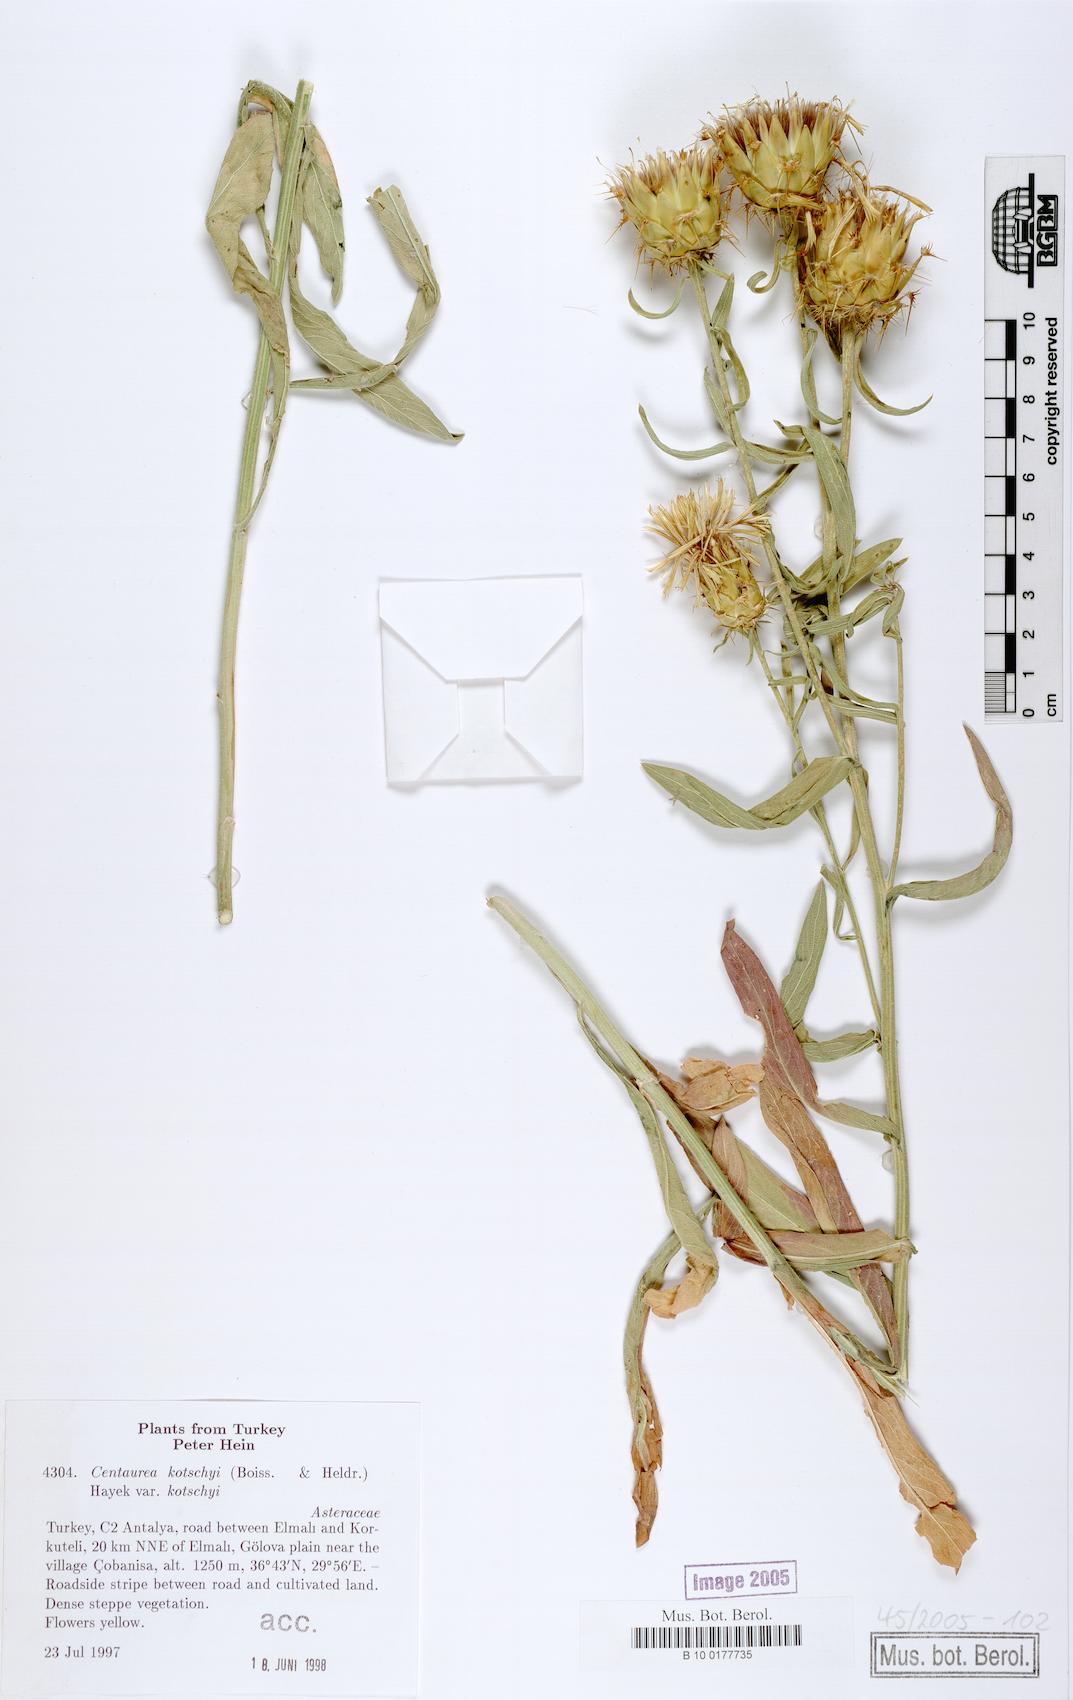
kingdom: Plantae
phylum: Tracheophyta
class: Magnoliopsida
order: Asterales
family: Asteraceae
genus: Centaurea
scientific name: Centaurea kotschyi
